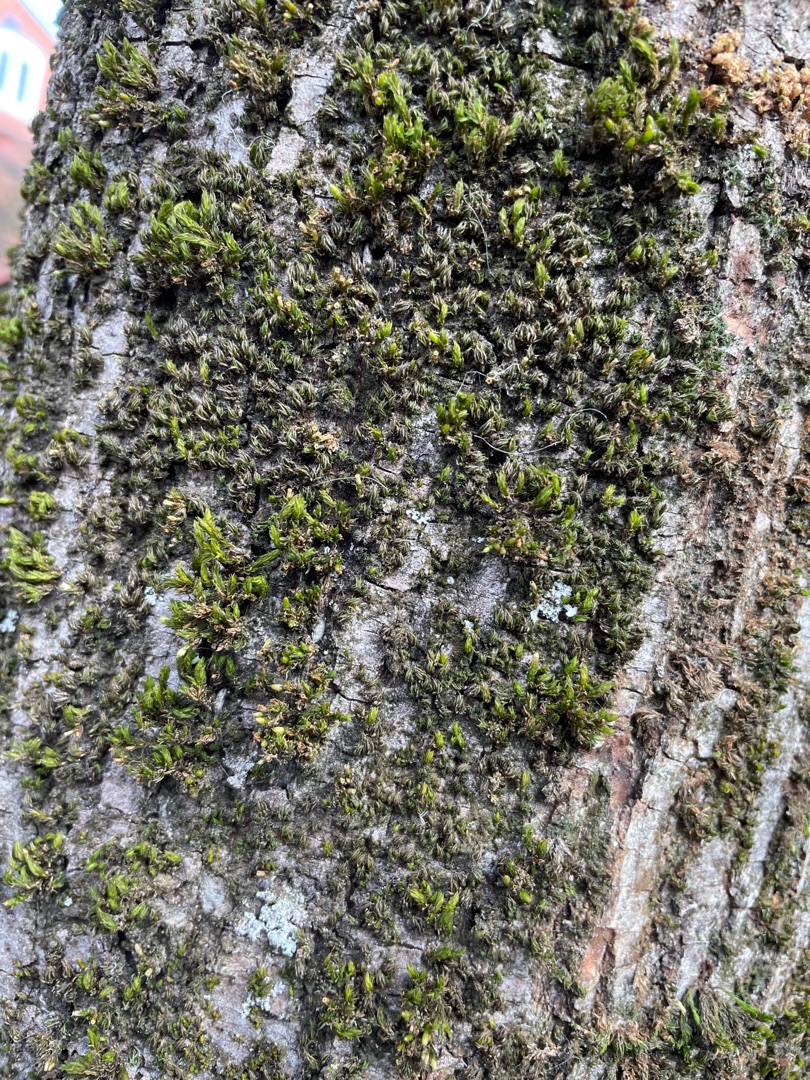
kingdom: Plantae
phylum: Bryophyta
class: Bryopsida
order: Orthotrichales
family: Orthotrichaceae
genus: Lewinskya
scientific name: Lewinskya affinis
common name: Almindelig furehætte
